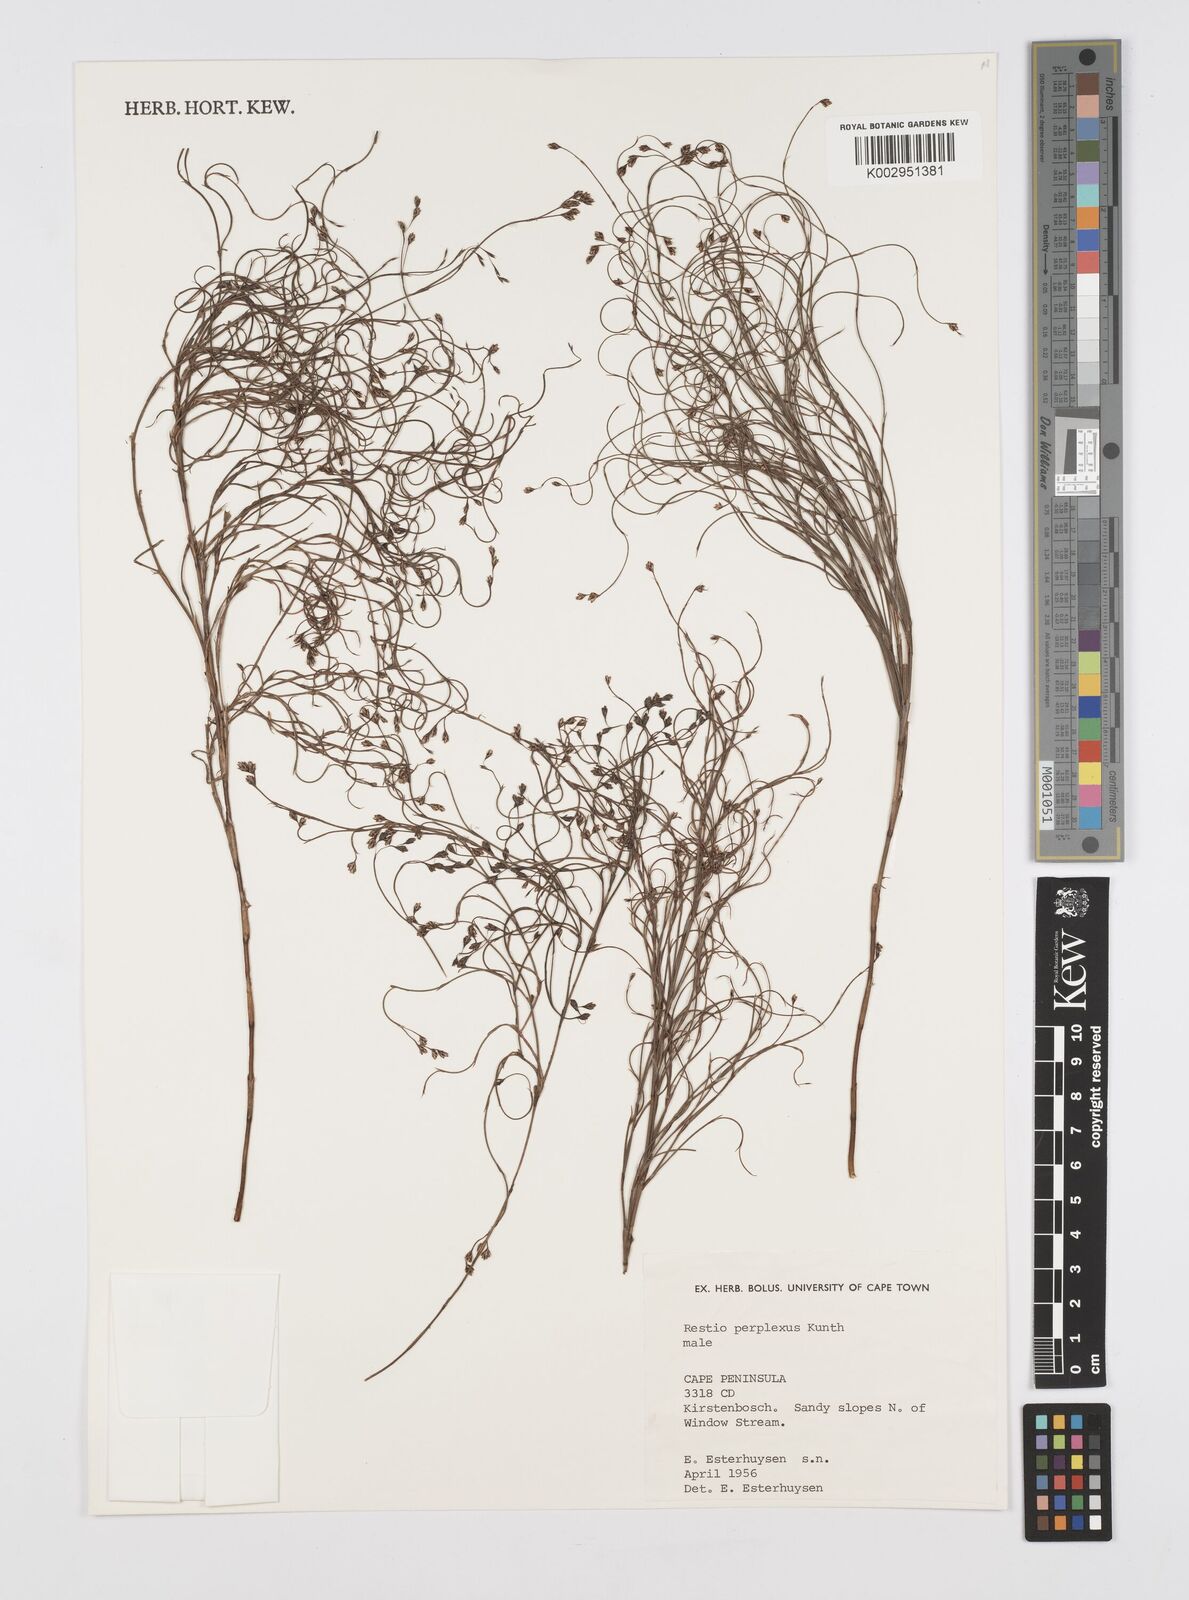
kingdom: Plantae
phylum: Tracheophyta
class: Liliopsida
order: Poales
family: Restionaceae
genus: Restio
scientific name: Restio perplexus
